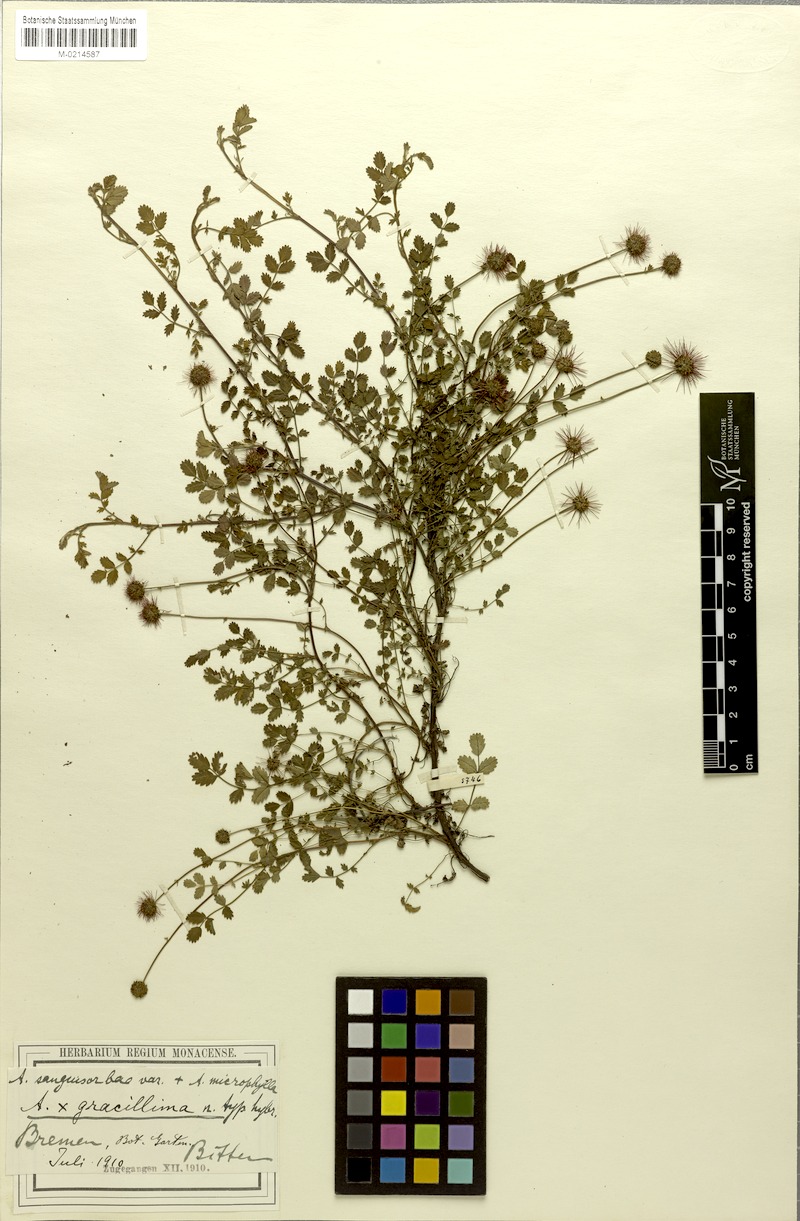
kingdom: Plantae
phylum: Tracheophyta
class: Magnoliopsida
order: Rosales
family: Rosaceae
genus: Acaena
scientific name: Acaena gracillima
